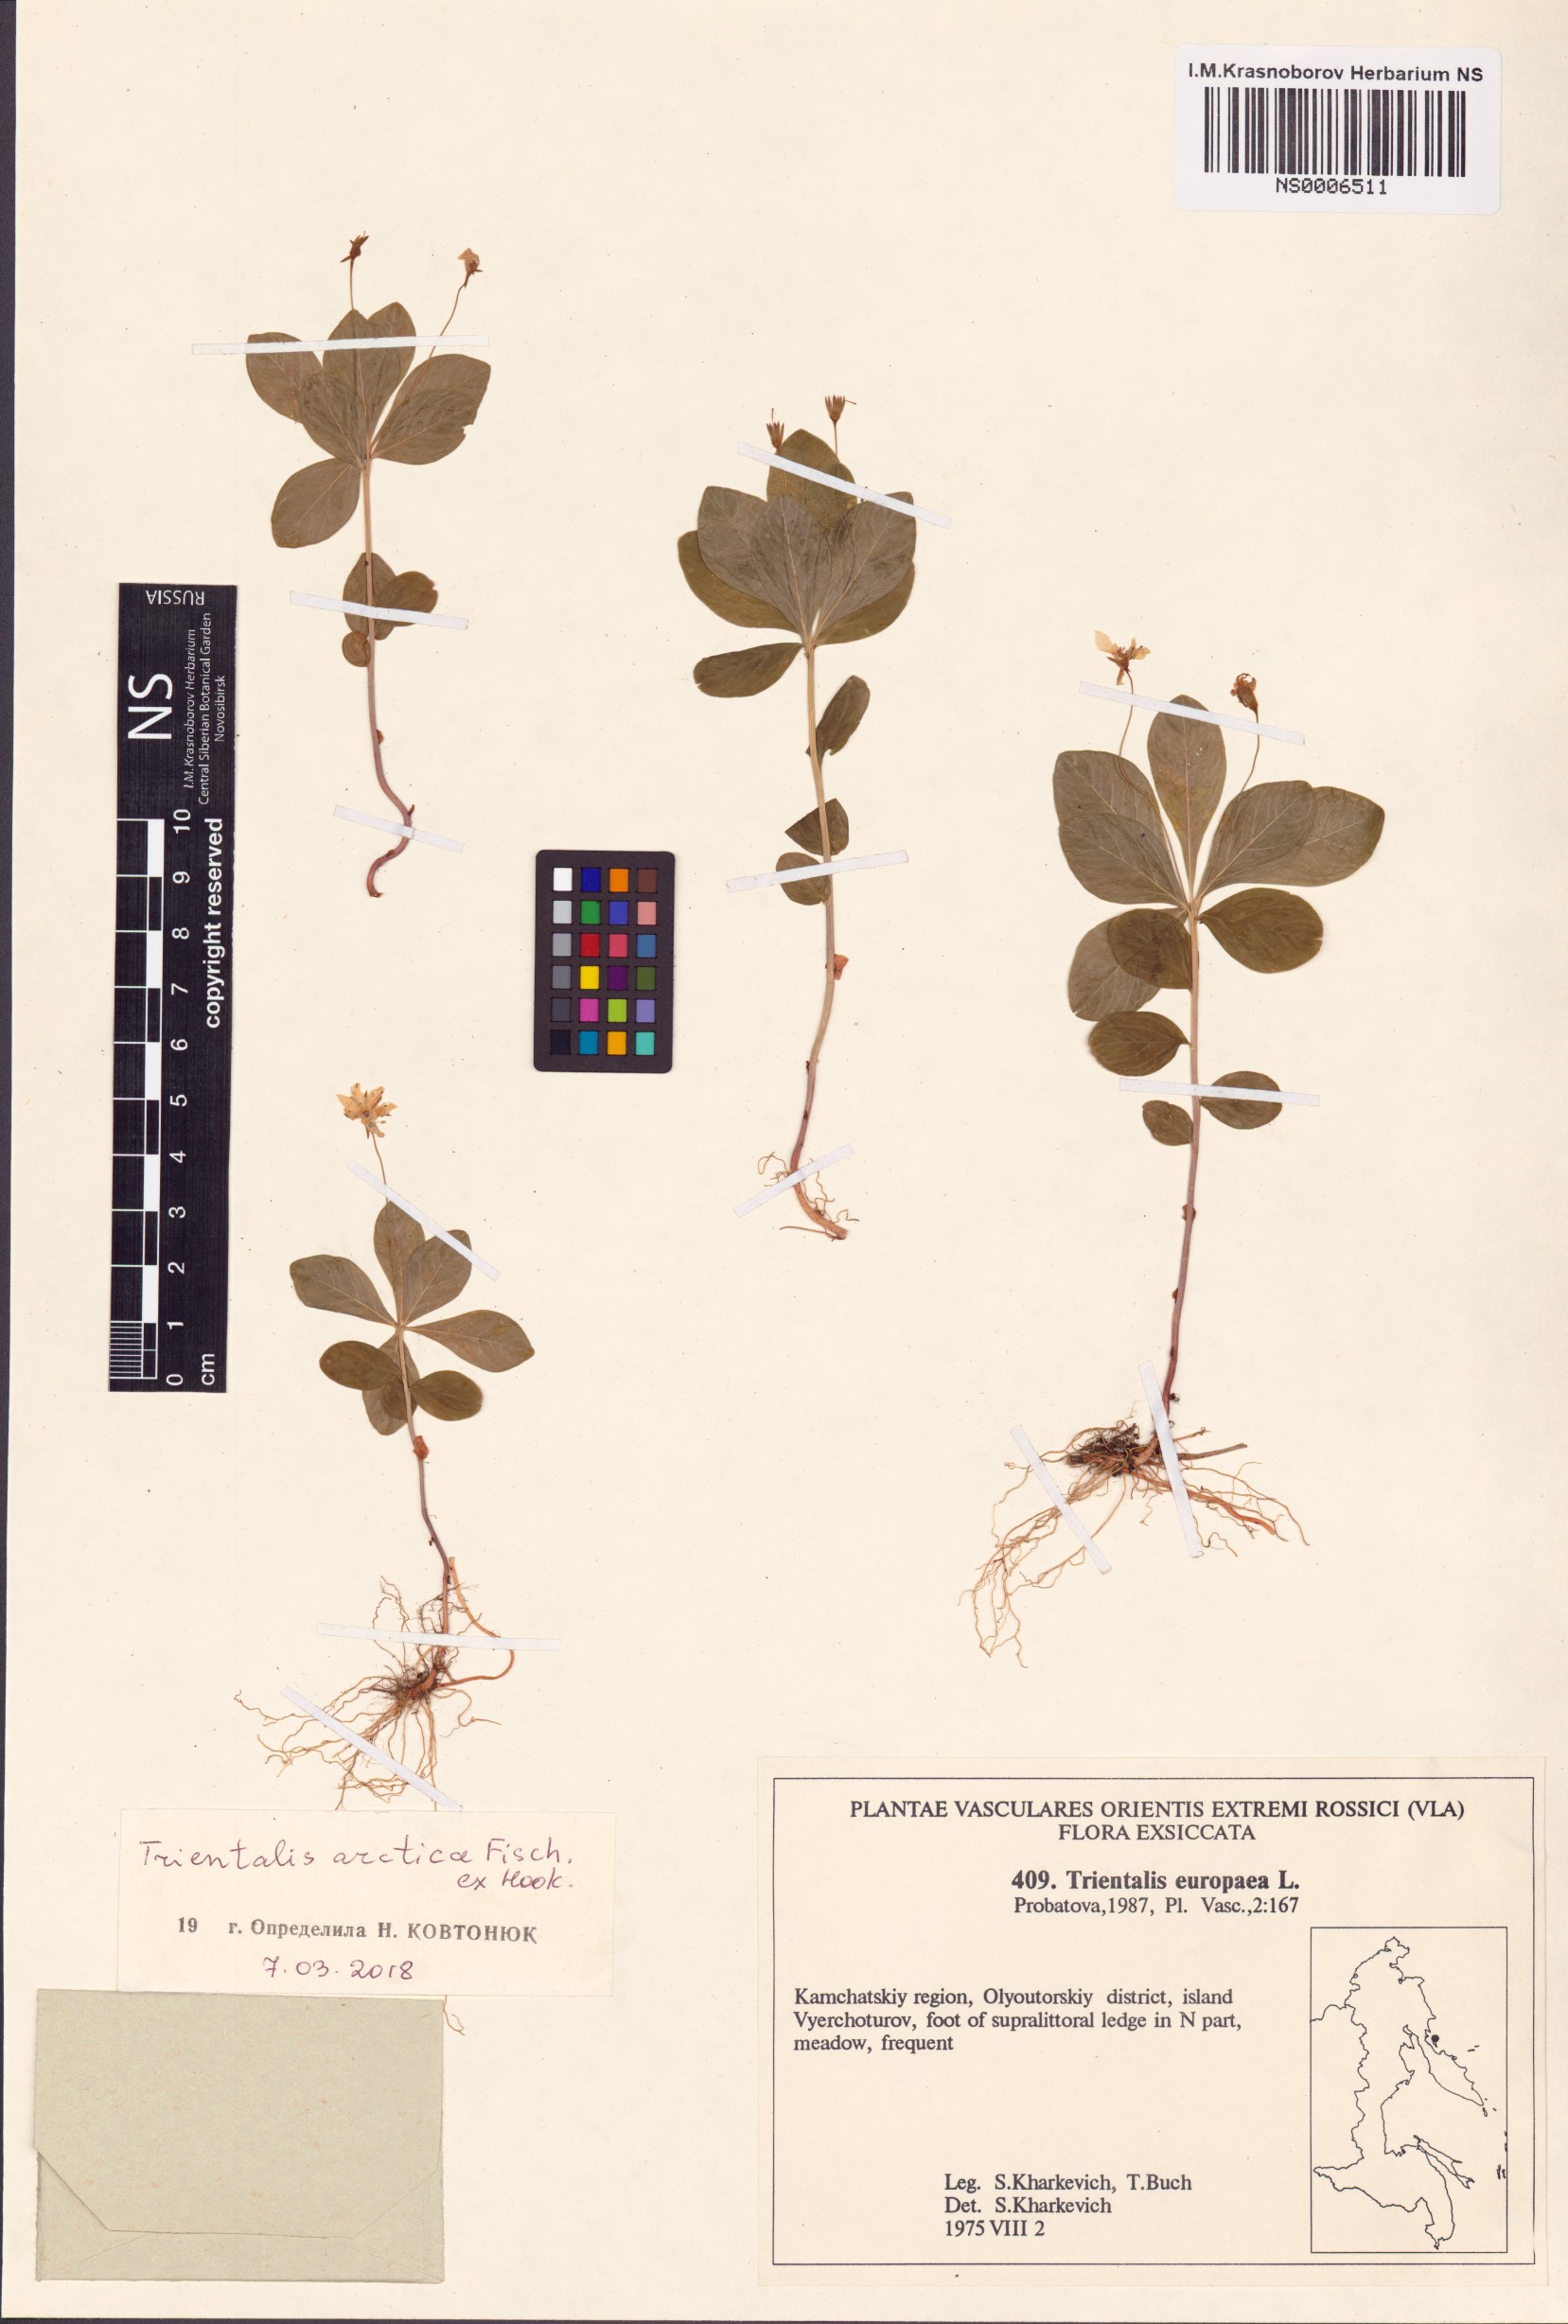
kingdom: Plantae
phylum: Tracheophyta
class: Magnoliopsida
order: Ericales
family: Primulaceae
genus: Lysimachia
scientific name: Lysimachia europaea
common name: Arctic starflower
